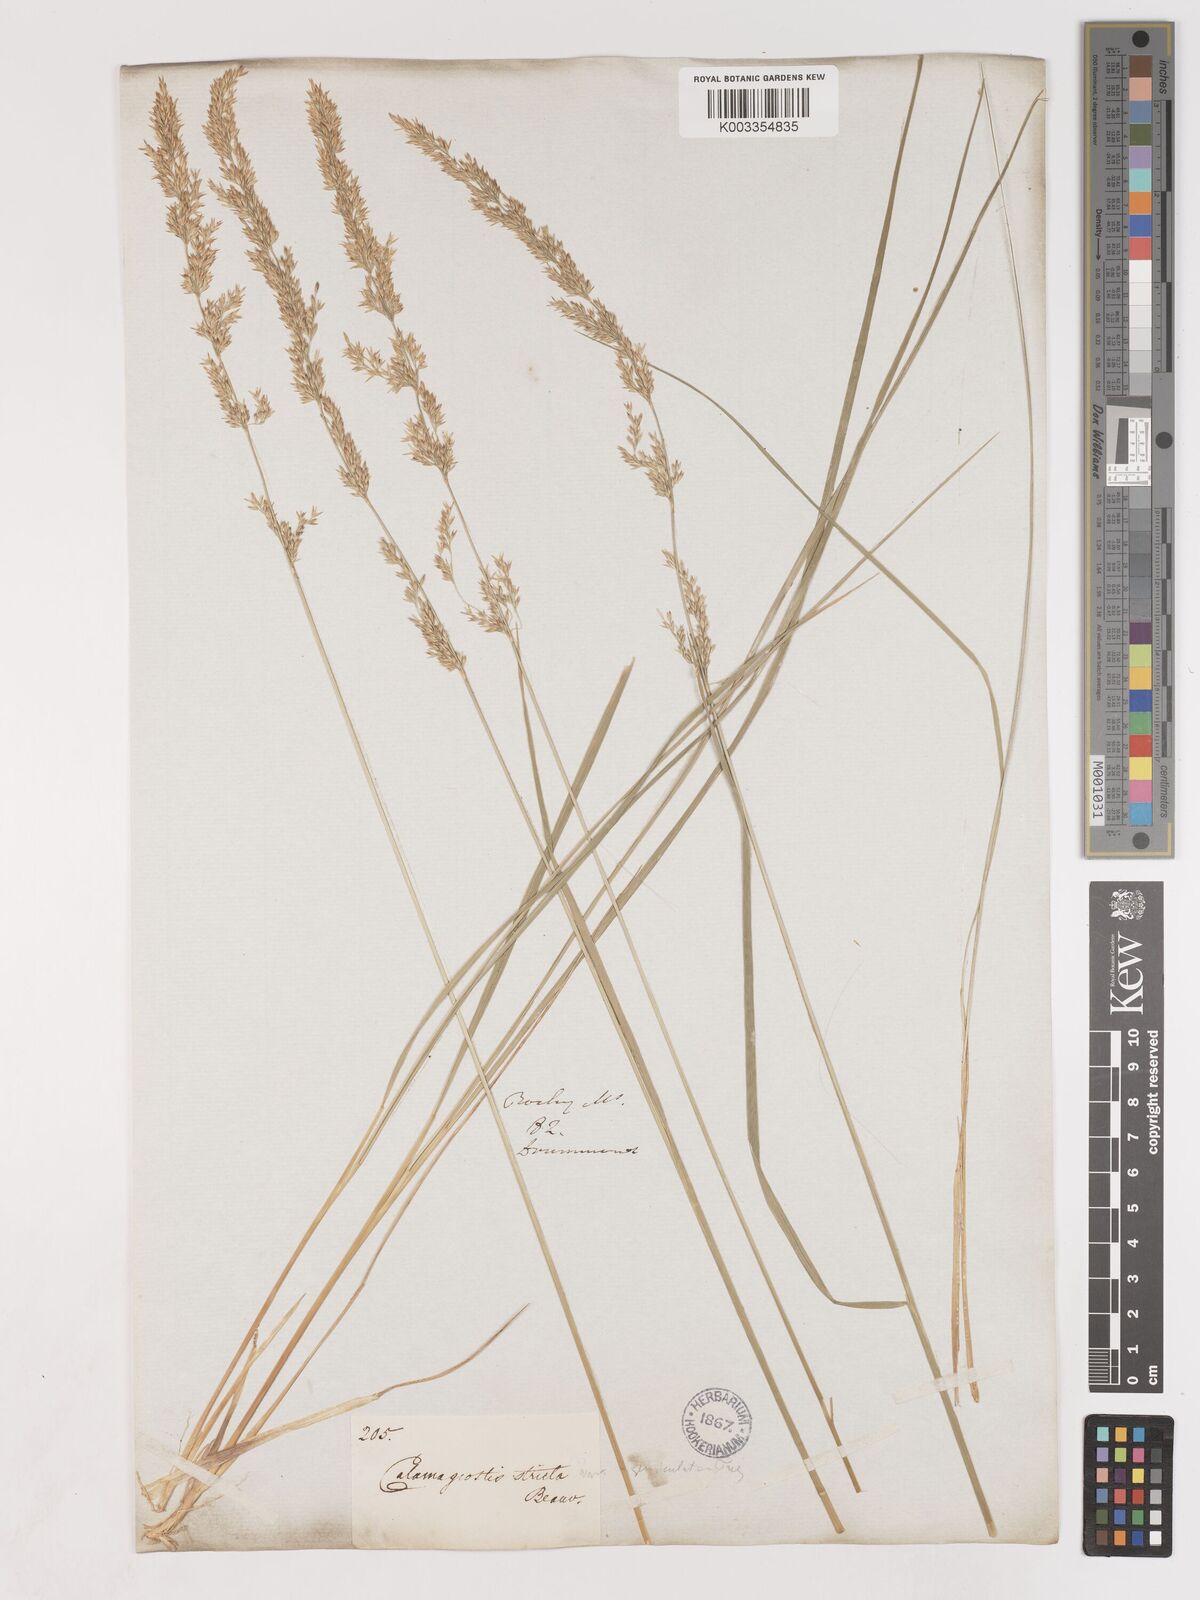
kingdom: Plantae
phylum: Tracheophyta
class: Liliopsida
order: Poales
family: Poaceae
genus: Calamagrostis
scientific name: Calamagrostis
